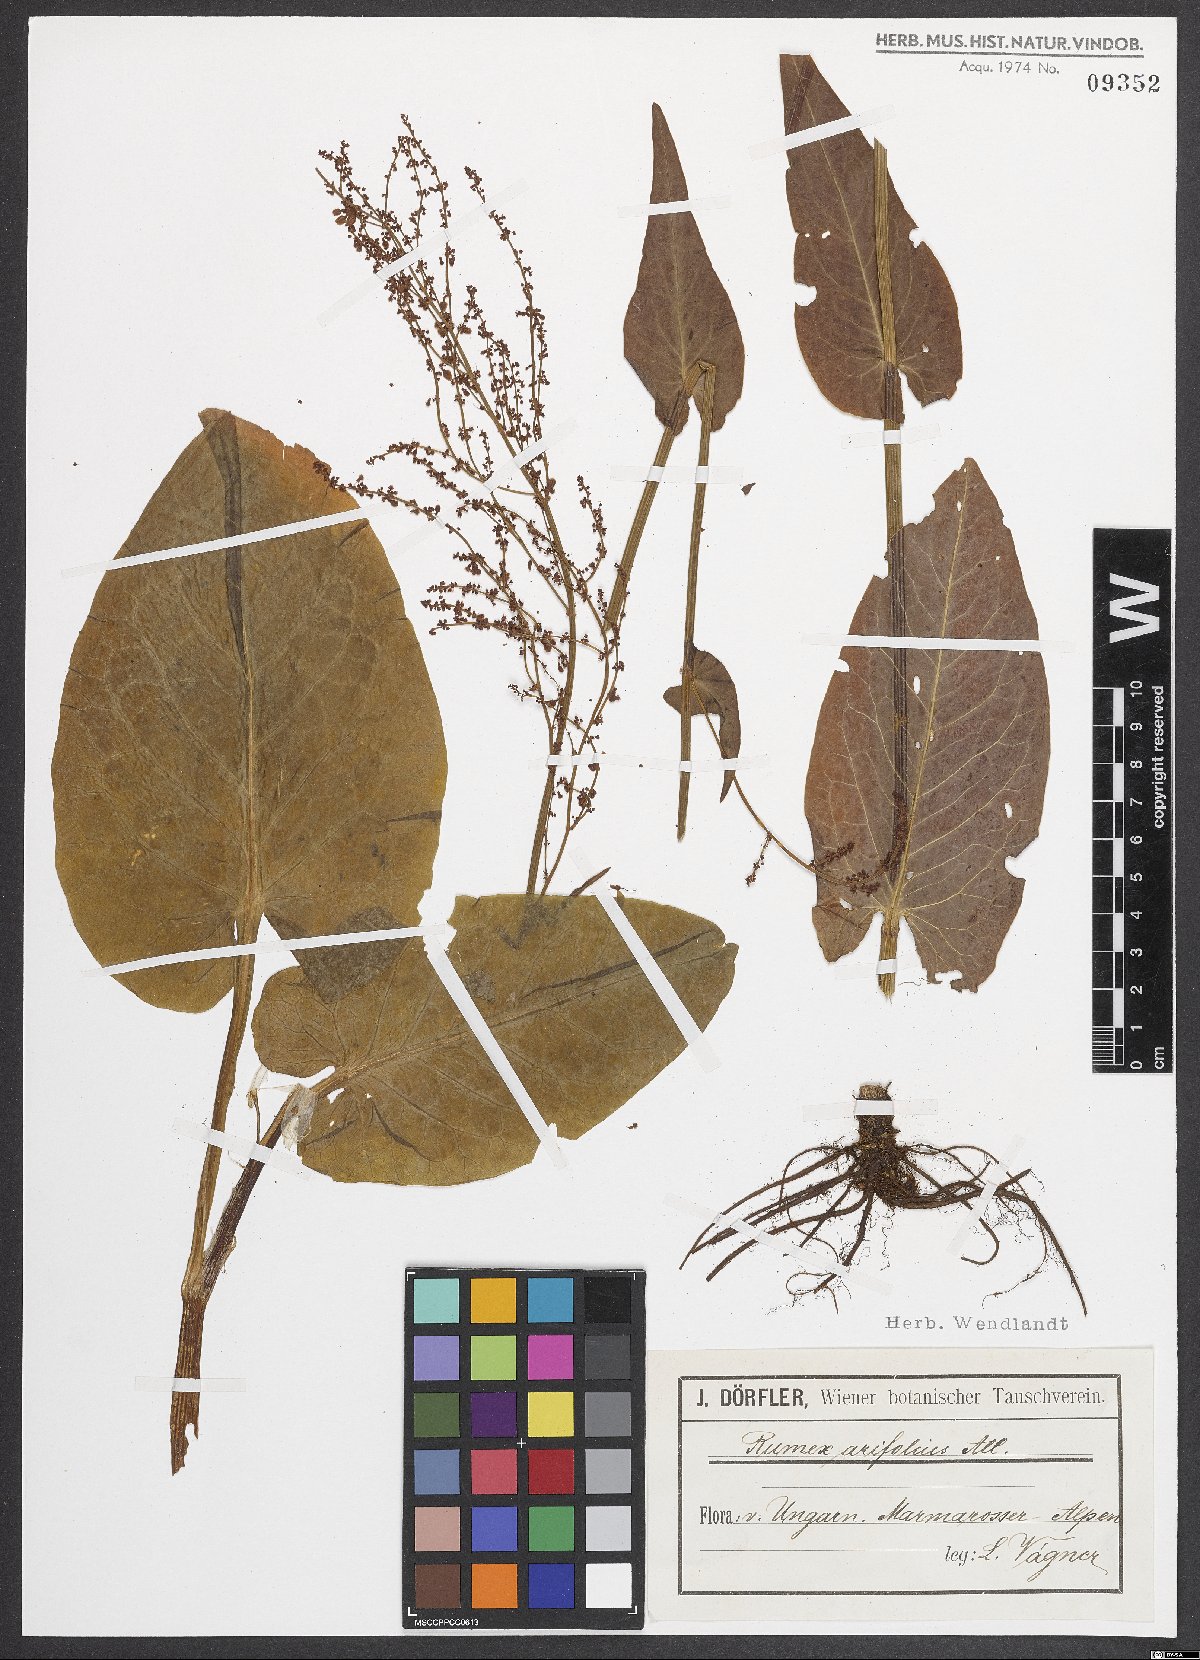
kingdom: Plantae
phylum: Tracheophyta
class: Magnoliopsida
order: Caryophyllales
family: Polygonaceae
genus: Rumex
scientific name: Rumex arifolius
